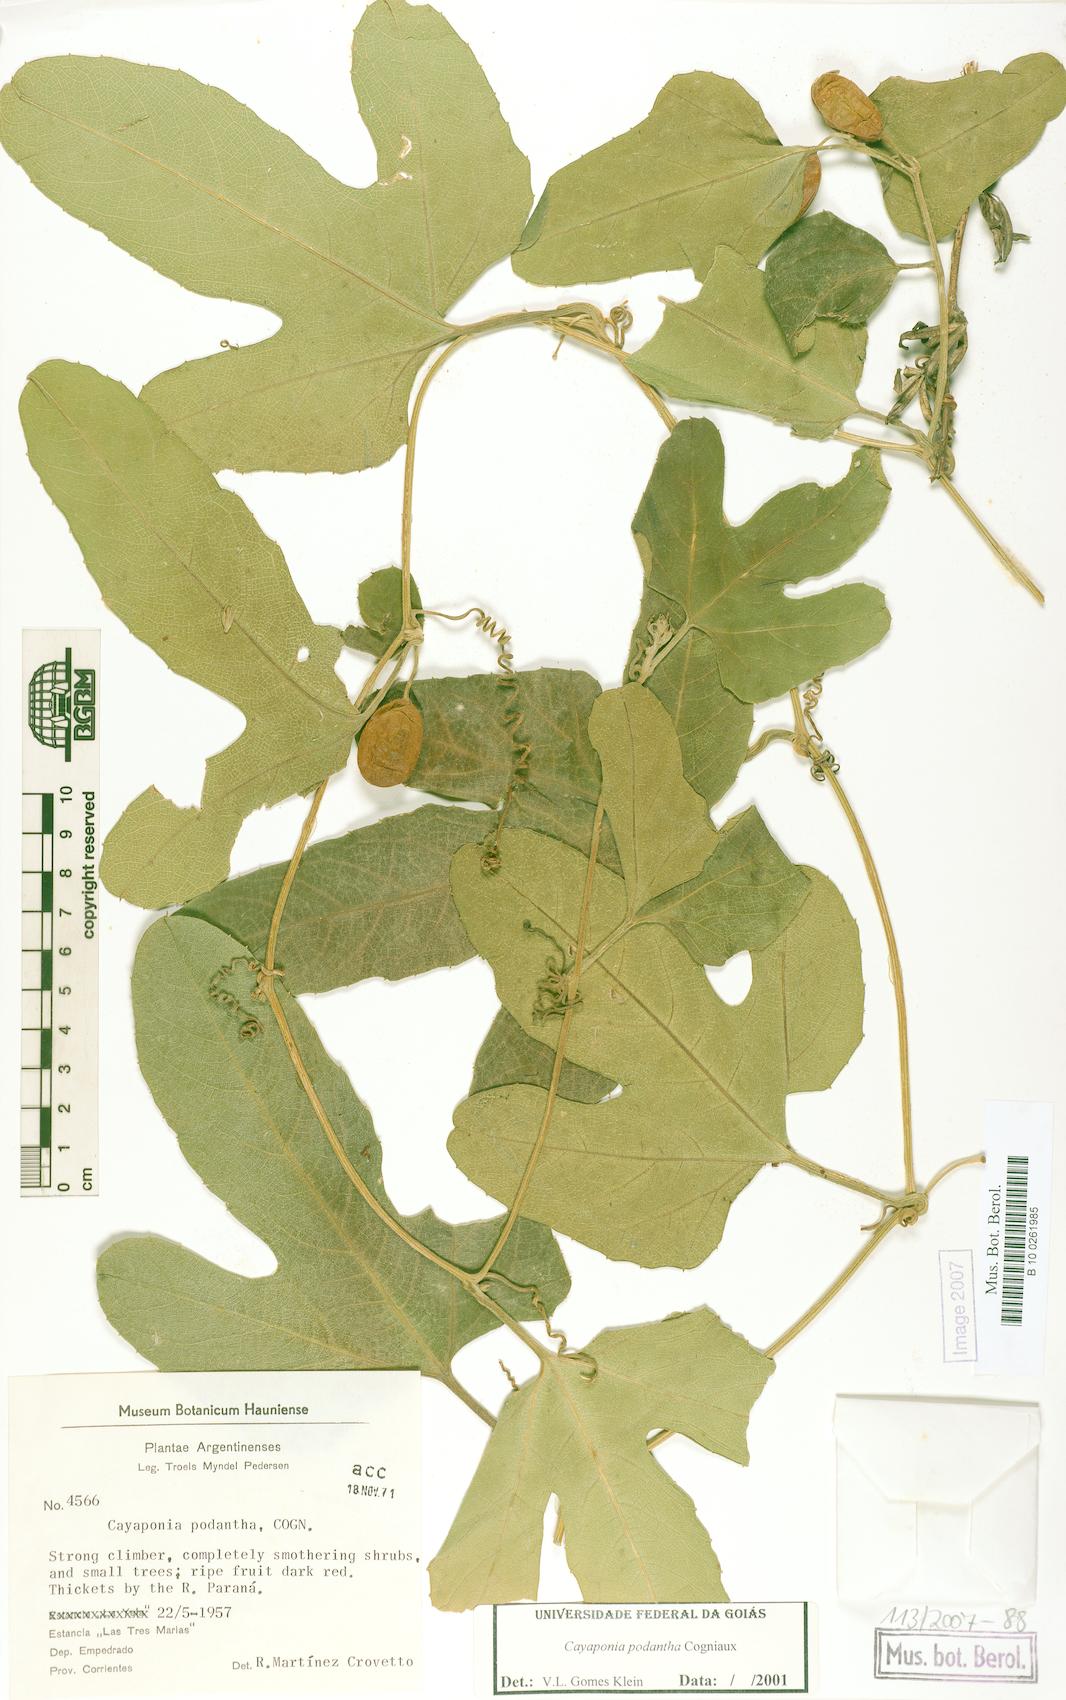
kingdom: Plantae
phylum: Tracheophyta
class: Magnoliopsida
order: Cucurbitales
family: Cucurbitaceae
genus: Cayaponia
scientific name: Cayaponia podantha
